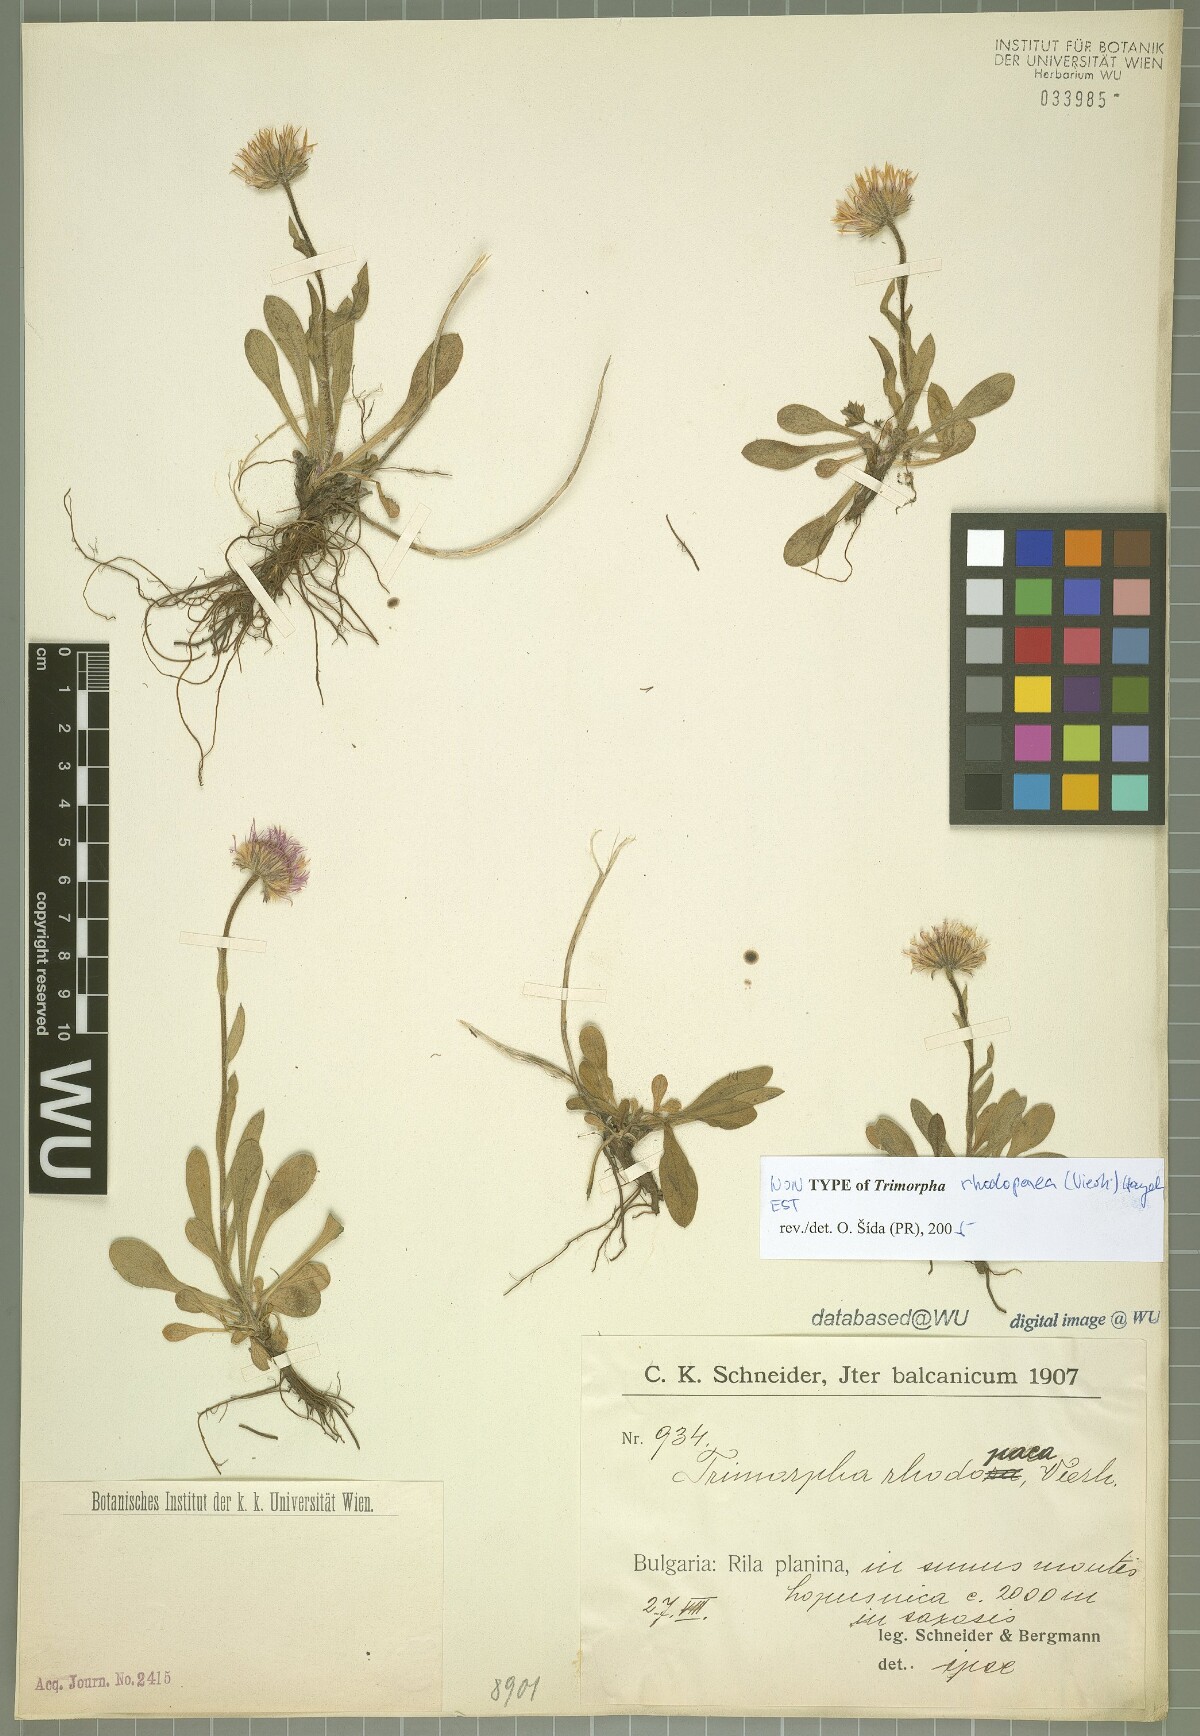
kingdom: Plantae
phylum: Tracheophyta
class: Magnoliopsida
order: Asterales
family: Asteraceae
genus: Erigeron
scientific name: Erigeron alpinus
